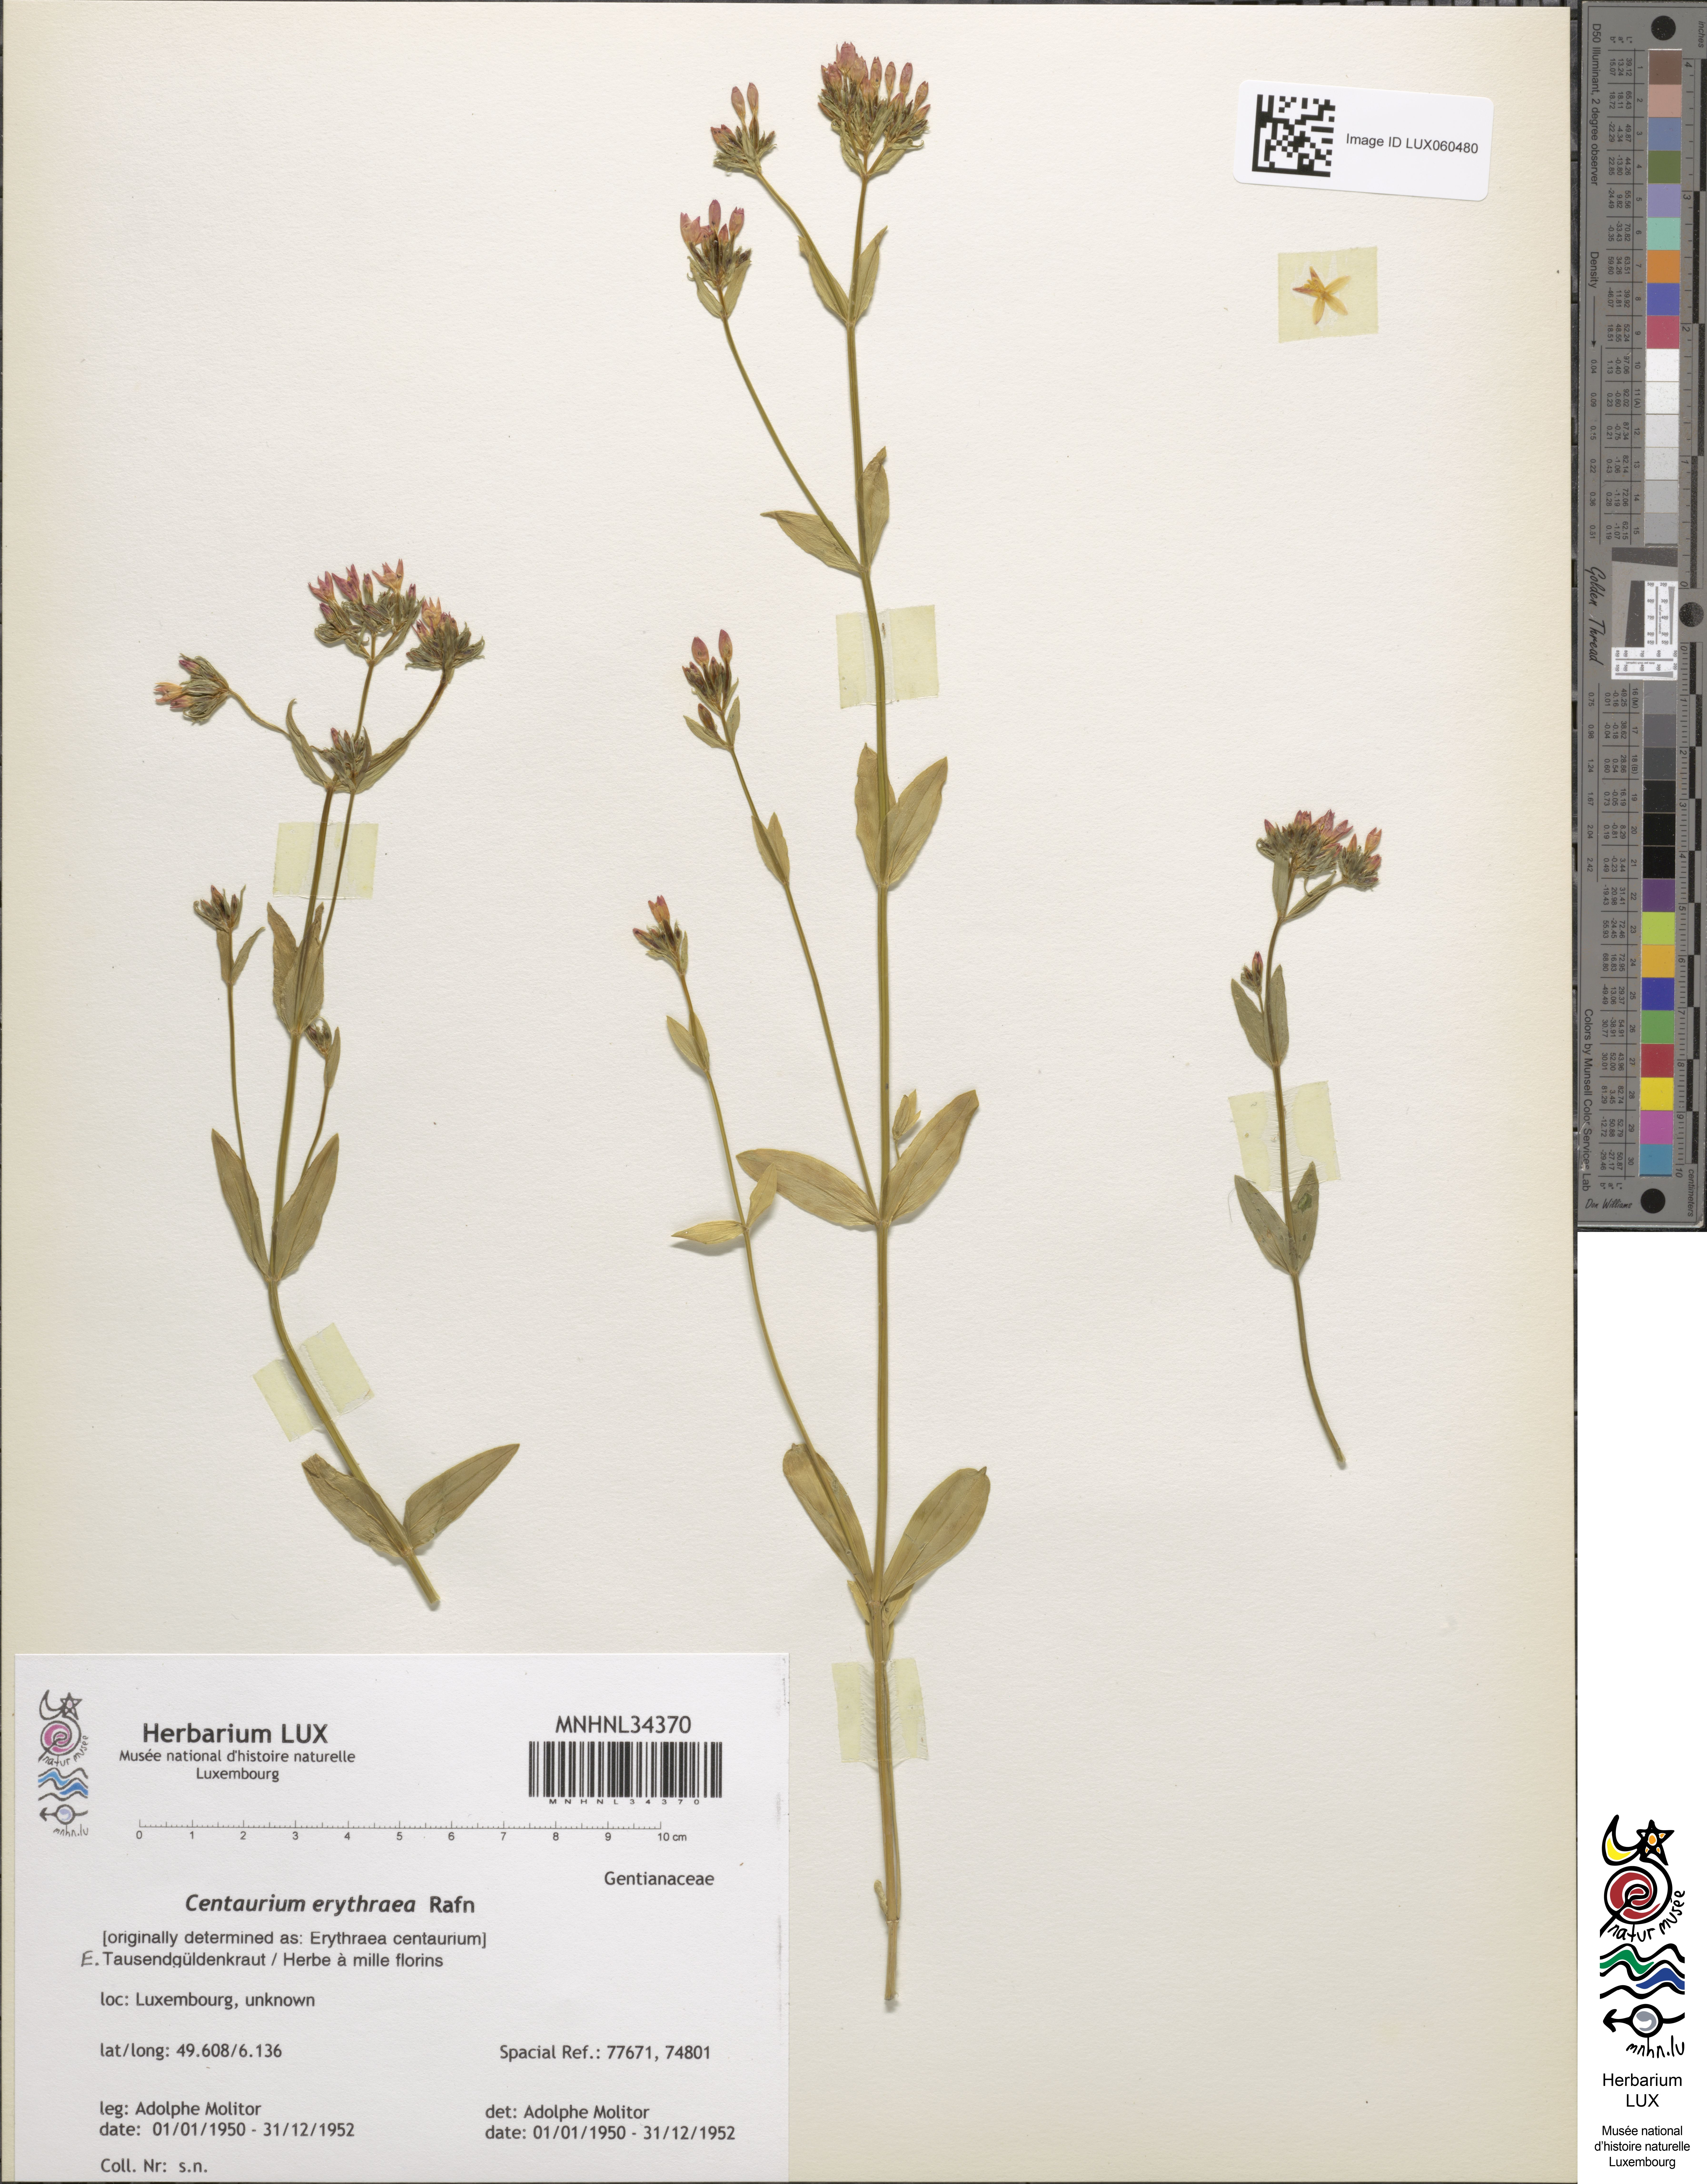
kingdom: Plantae
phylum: Tracheophyta
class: Magnoliopsida
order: Gentianales
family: Gentianaceae
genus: Centaurium
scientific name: Centaurium erythraea
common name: Common centaury
